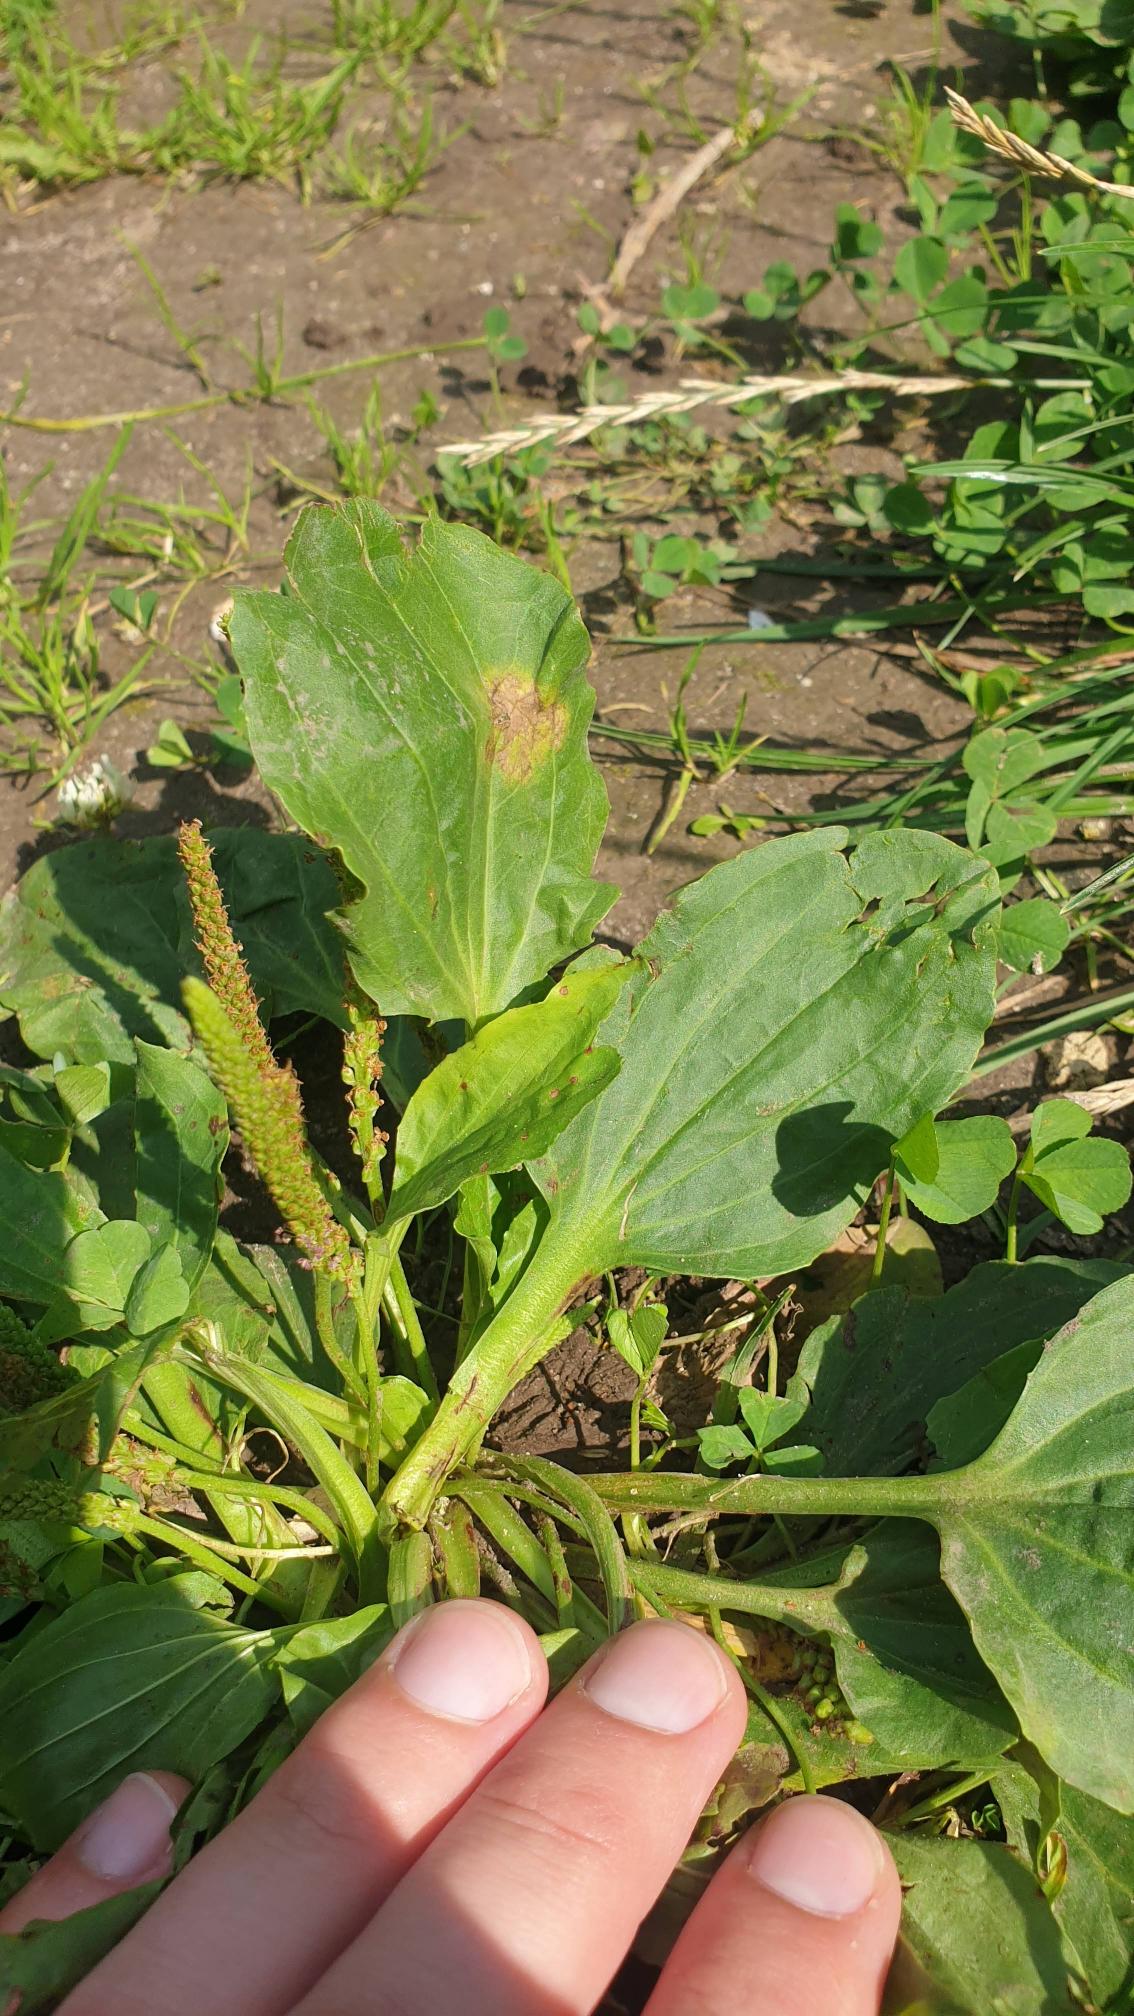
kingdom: Plantae
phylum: Tracheophyta
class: Magnoliopsida
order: Lamiales
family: Plantaginaceae
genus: Plantago
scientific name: Plantago major
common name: Glat vejbred
